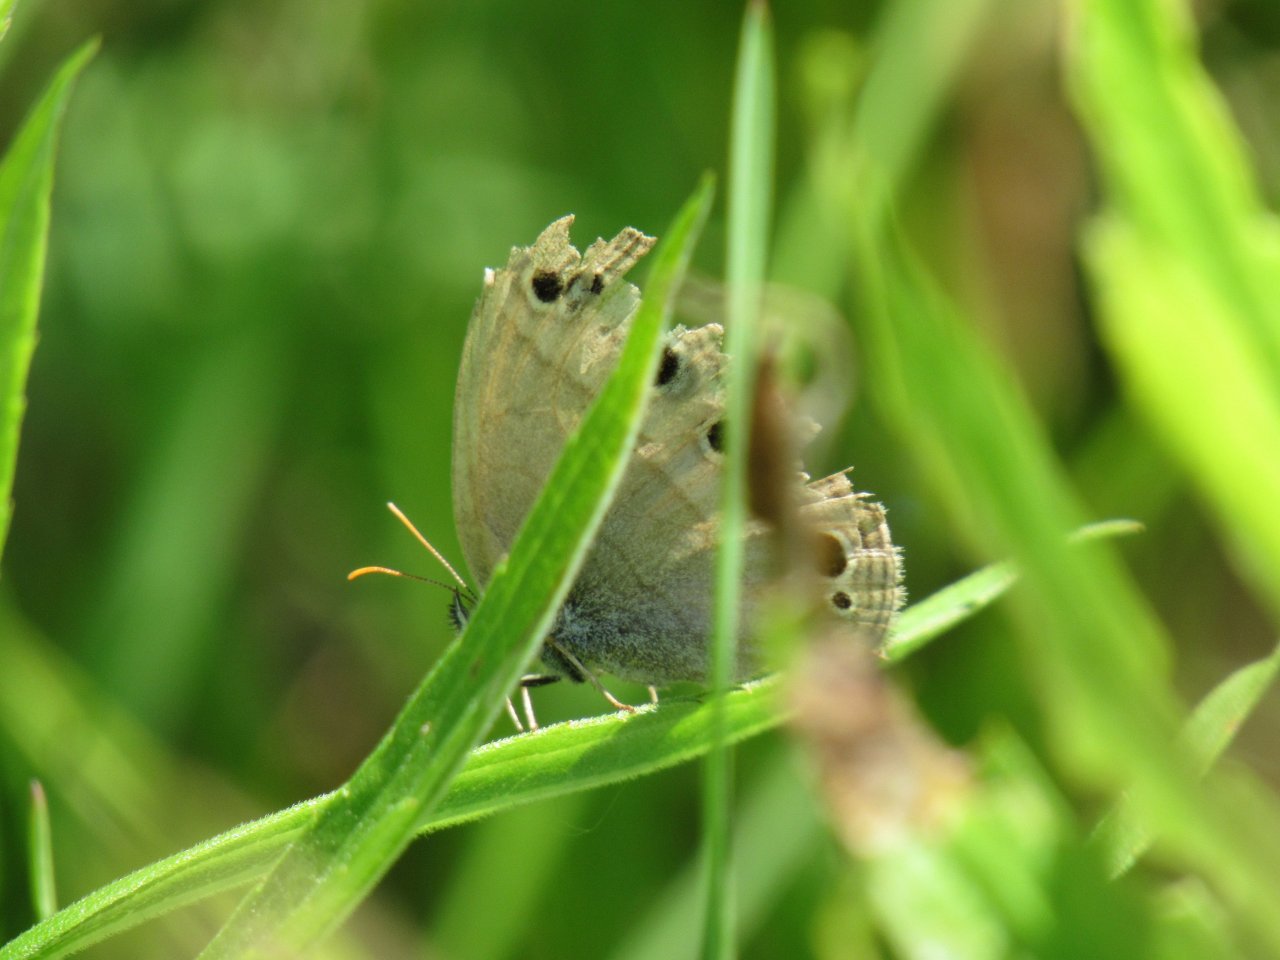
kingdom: Animalia
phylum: Arthropoda
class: Insecta
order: Lepidoptera
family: Nymphalidae
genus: Euptychia
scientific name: Euptychia cymela
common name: Little Wood Satyr
